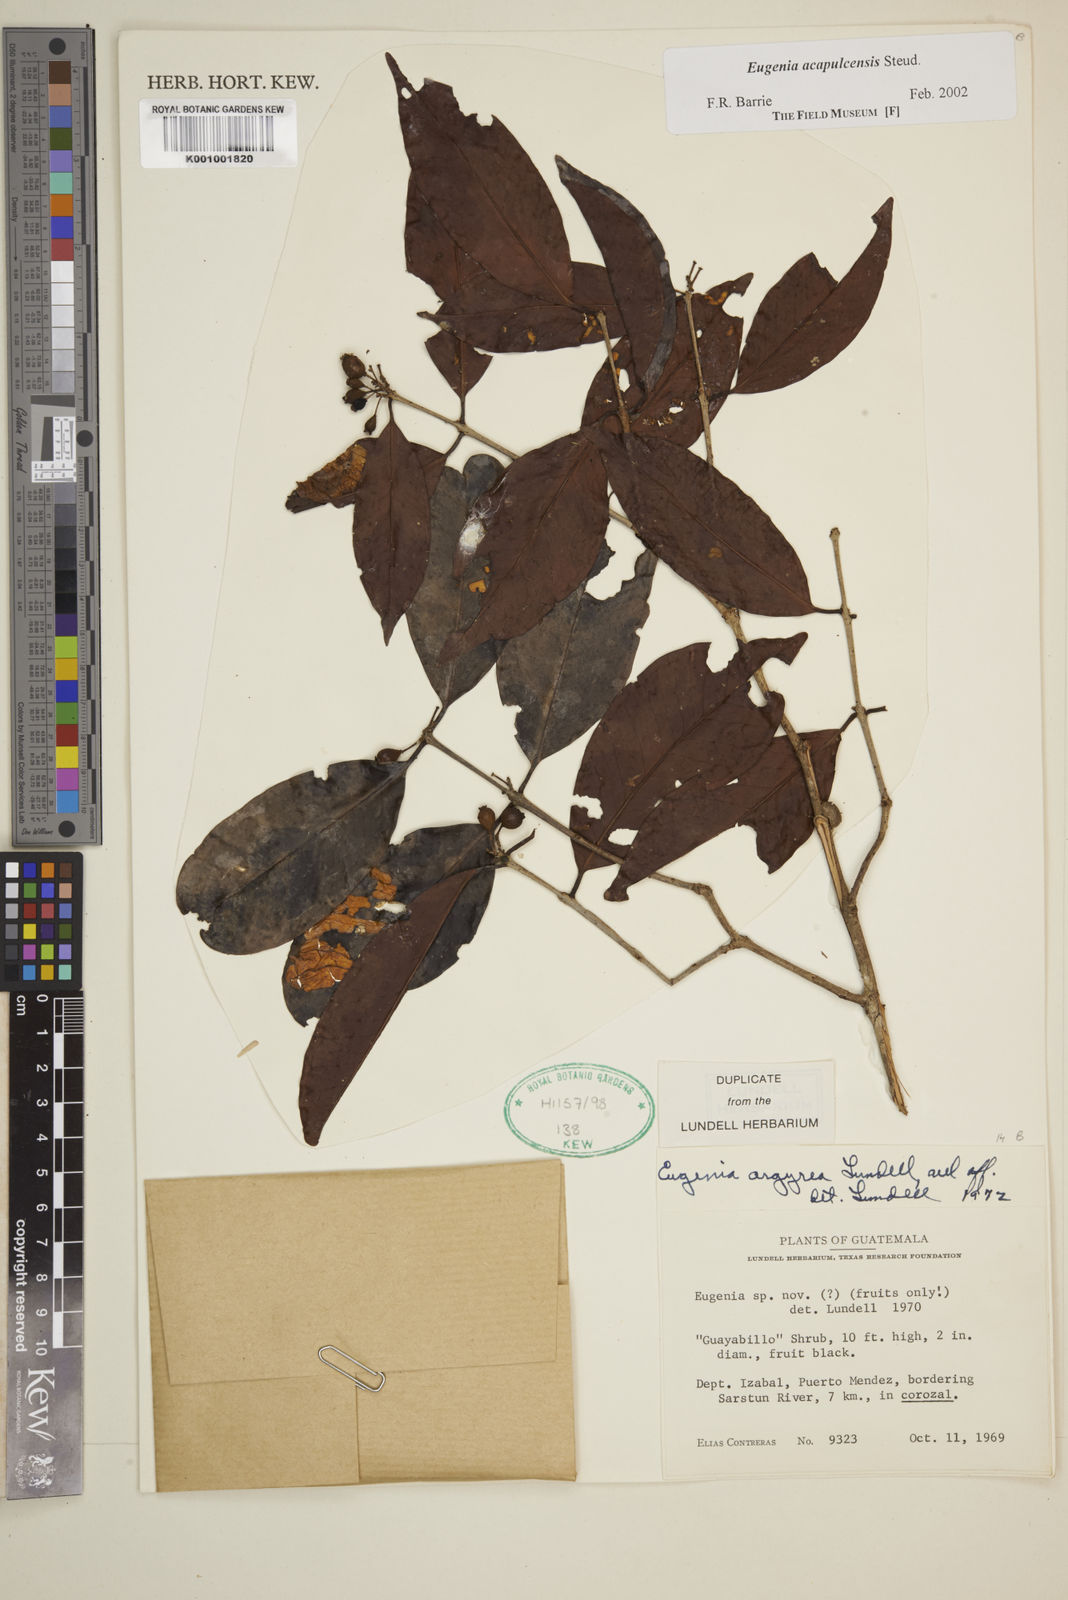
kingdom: Plantae
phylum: Tracheophyta
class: Magnoliopsida
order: Myrtales
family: Myrtaceae
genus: Eugenia
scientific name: Eugenia acapulcensis
